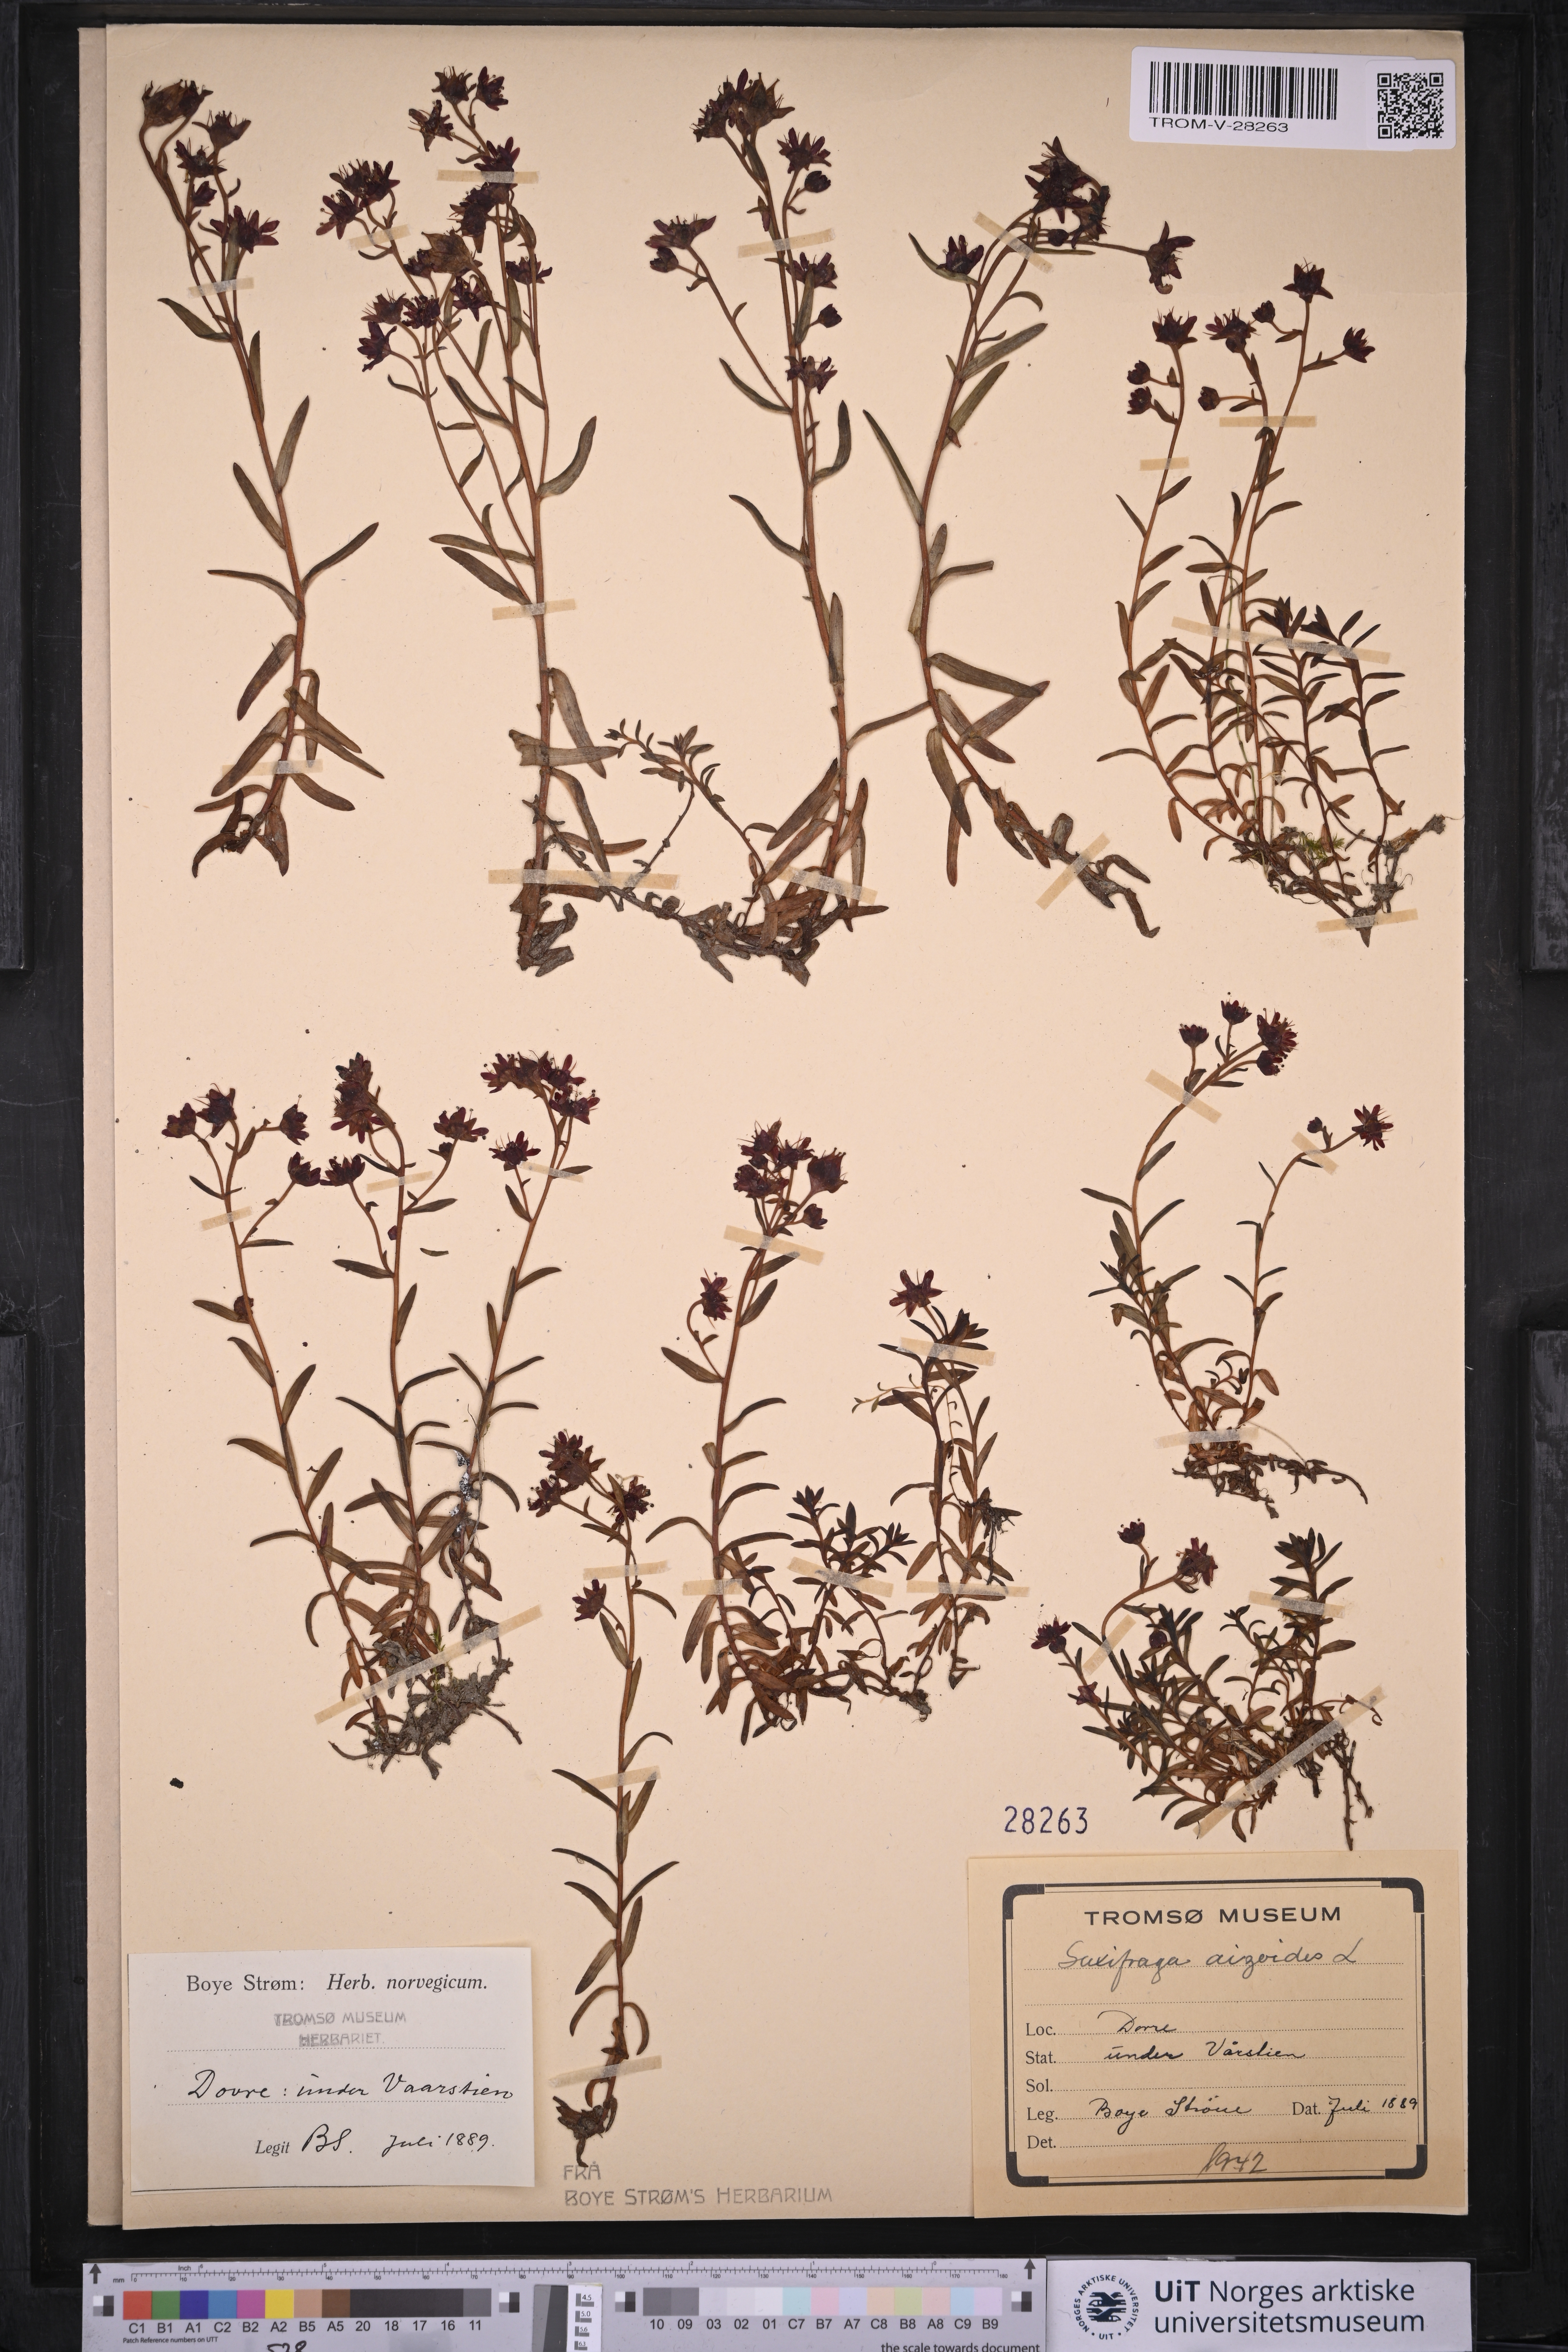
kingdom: Plantae
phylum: Tracheophyta
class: Magnoliopsida
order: Saxifragales
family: Saxifragaceae
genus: Saxifraga
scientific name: Saxifraga aizoides
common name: Yellow mountain saxifrage
